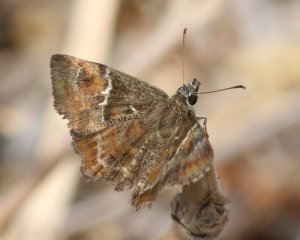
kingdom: Animalia
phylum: Arthropoda
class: Insecta
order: Lepidoptera
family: Hesperiidae
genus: Systasea
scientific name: Systasea pulverulenta
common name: Texas Powdered-Skipper
